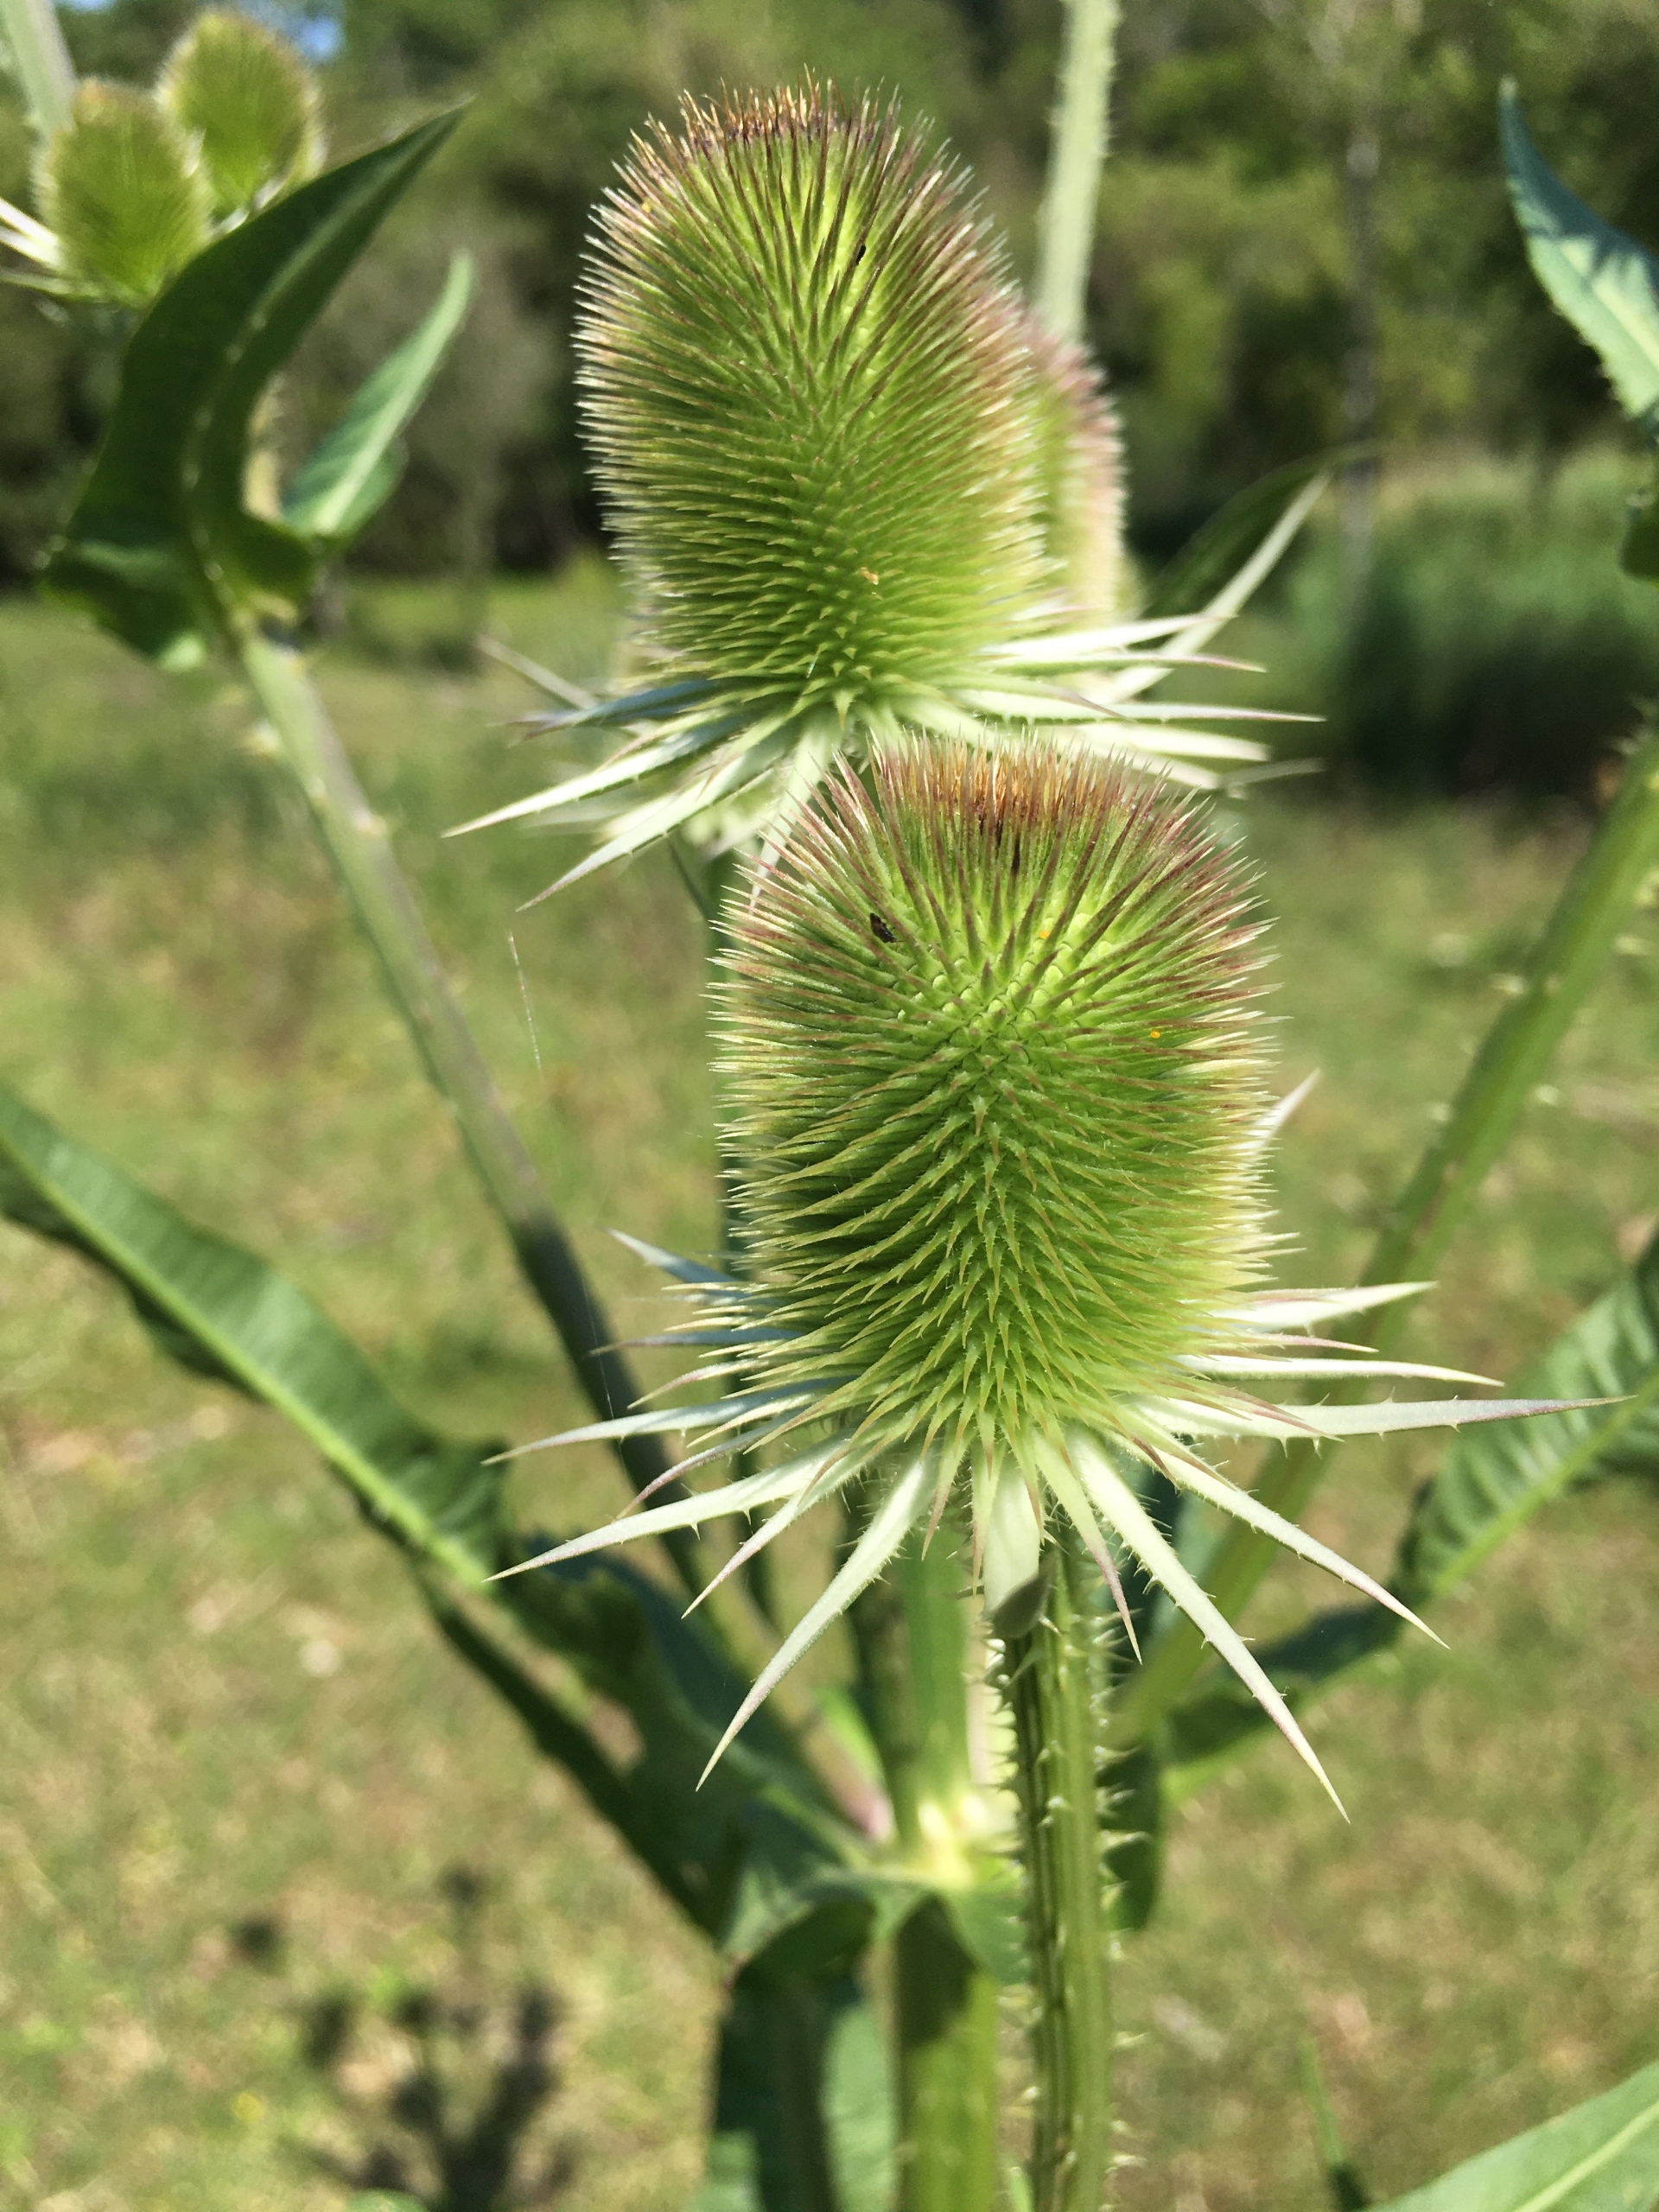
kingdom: Plantae
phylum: Tracheophyta
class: Magnoliopsida
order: Dipsacales
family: Caprifoliaceae
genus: Dipsacus
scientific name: Dipsacus fullonum
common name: Gærde-kartebolle
